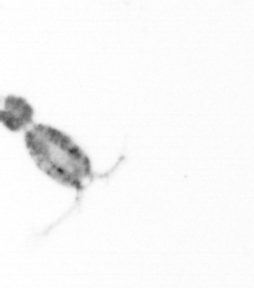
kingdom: Animalia
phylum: Arthropoda
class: Copepoda
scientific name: Copepoda
